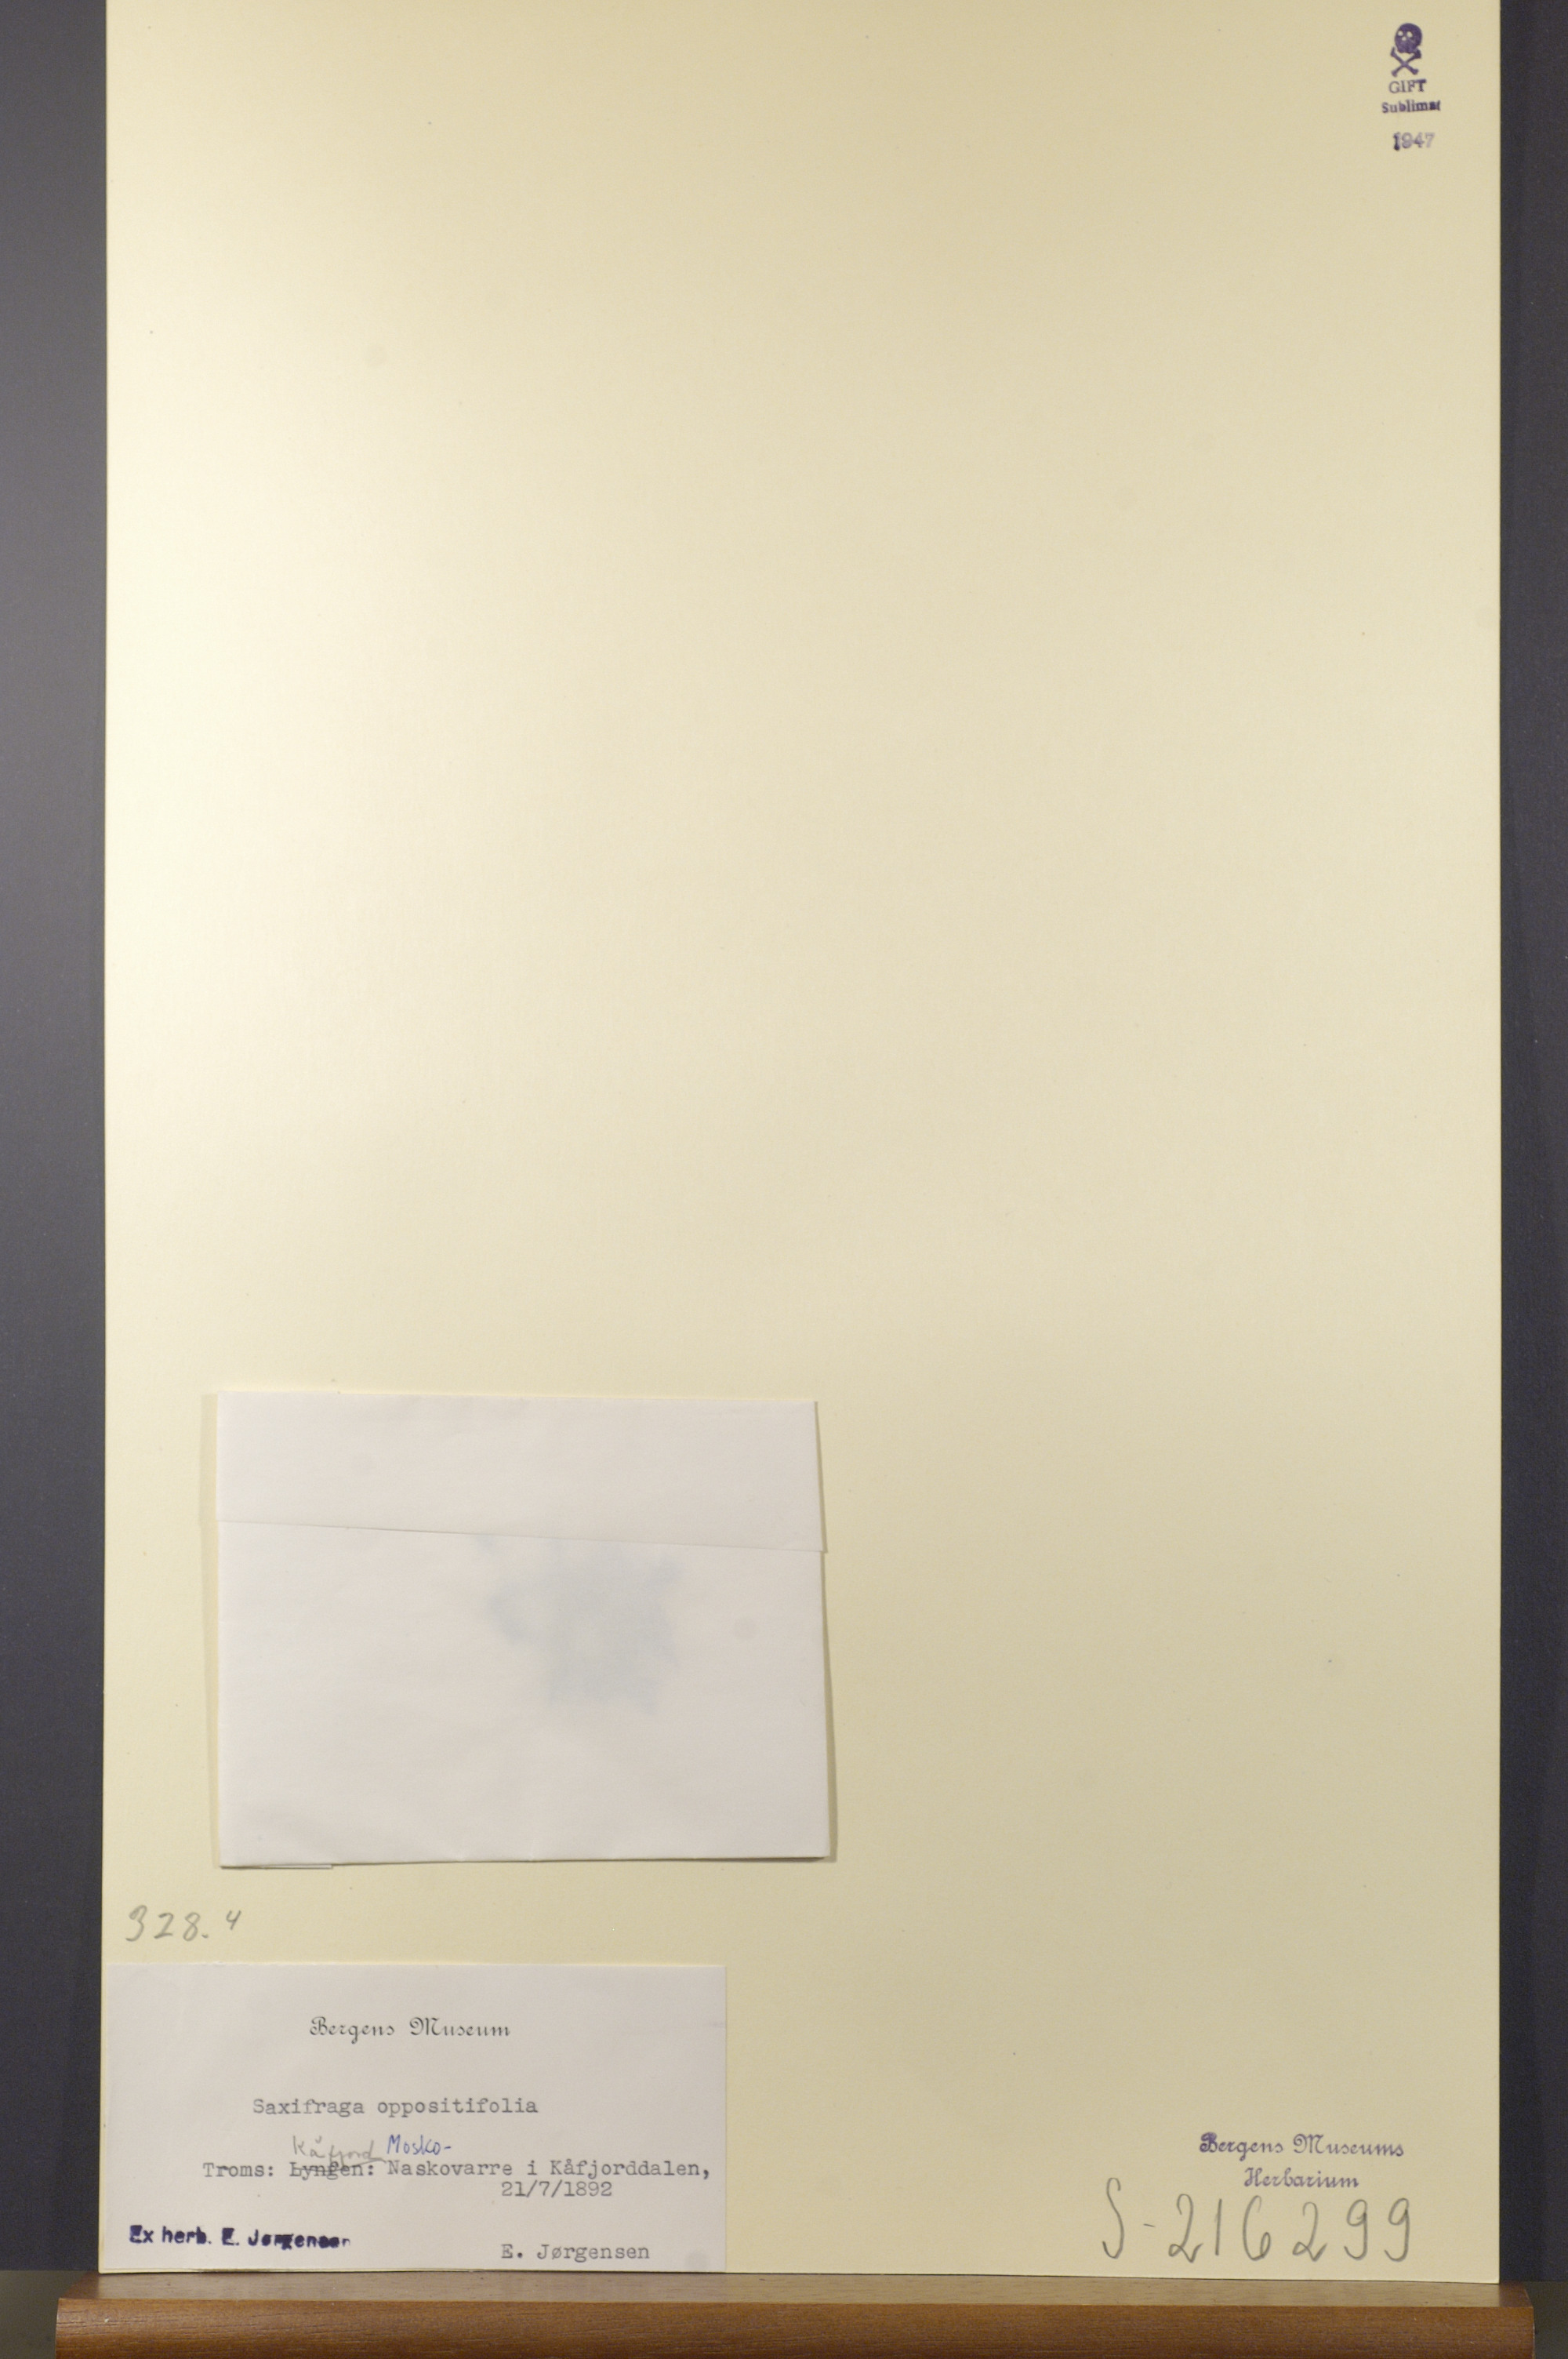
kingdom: Plantae
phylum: Tracheophyta
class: Magnoliopsida
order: Saxifragales
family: Saxifragaceae
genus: Saxifraga
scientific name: Saxifraga oppositifolia
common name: Purple saxifrage
